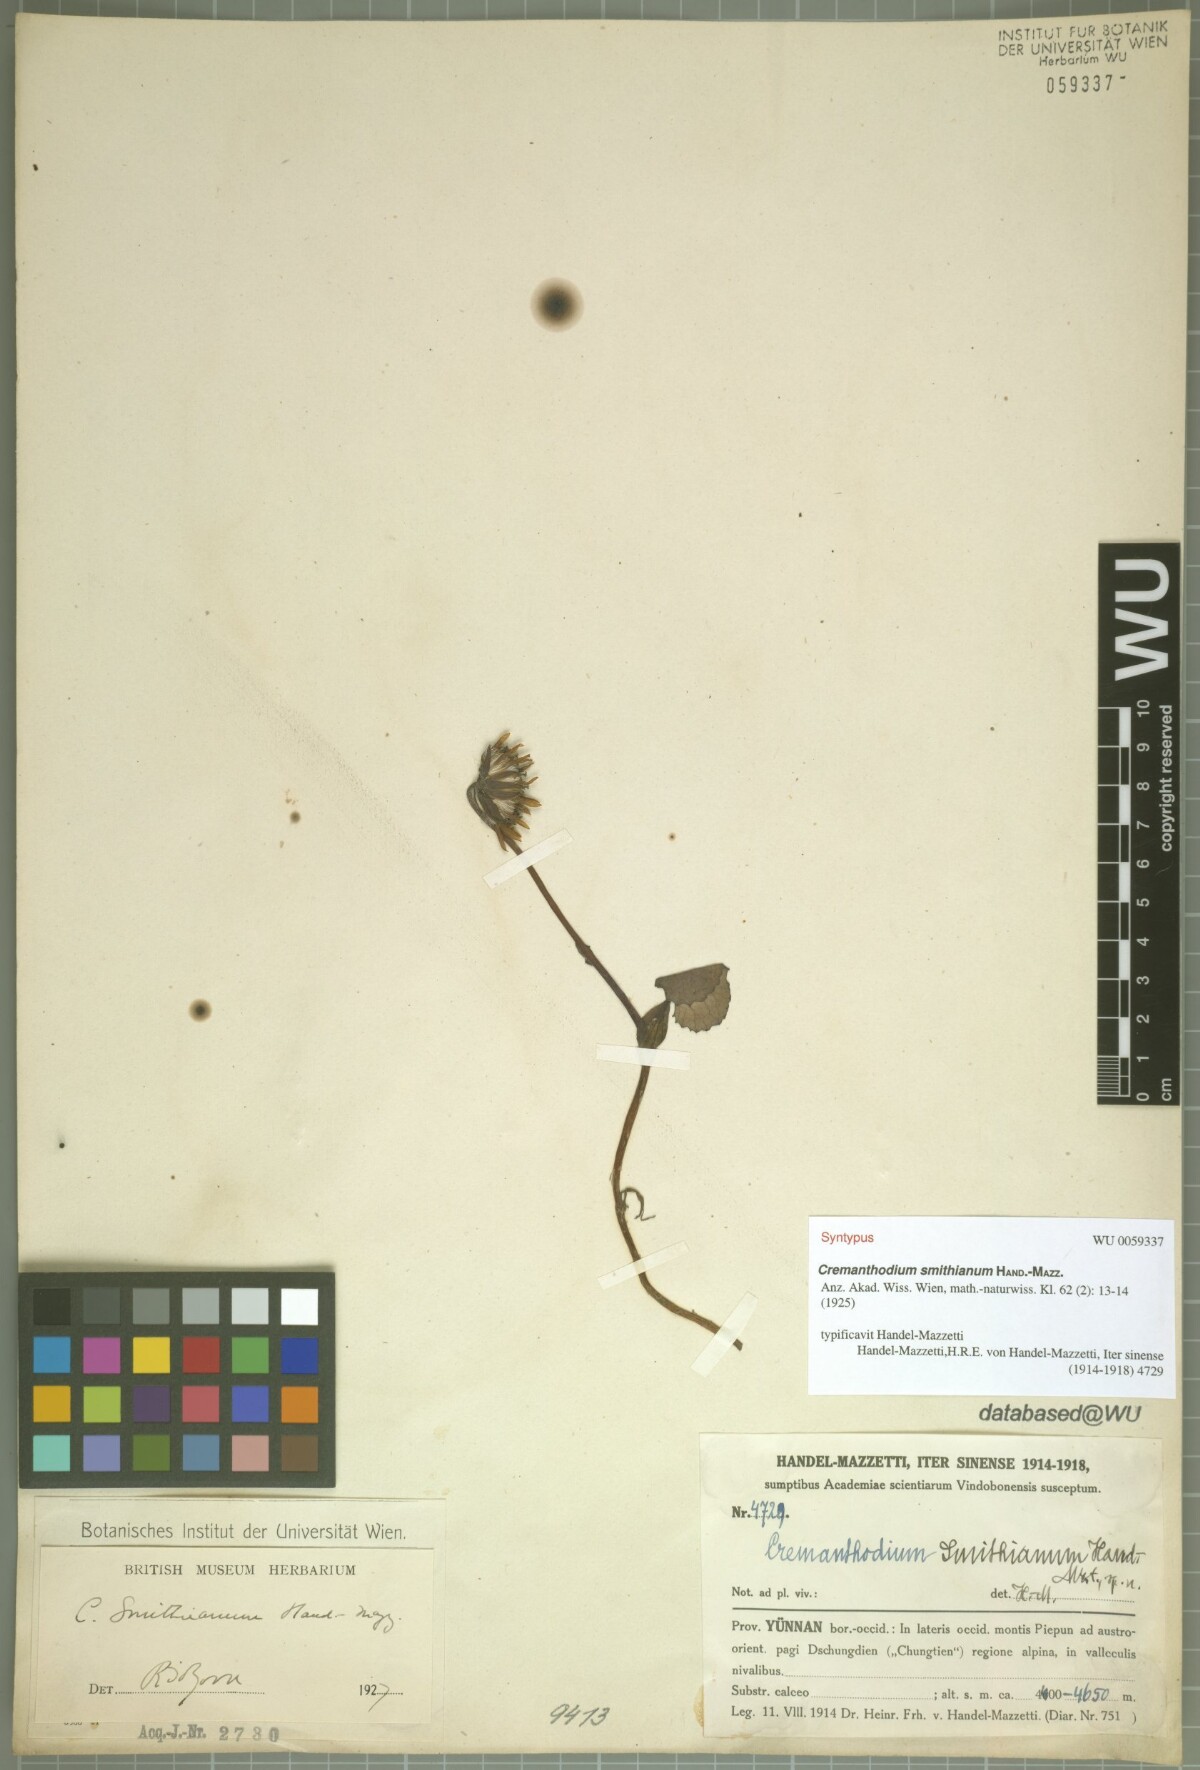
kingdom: Plantae
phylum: Tracheophyta
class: Magnoliopsida
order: Asterales
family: Asteraceae
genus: Cremanthodium
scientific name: Cremanthodium smithianum
